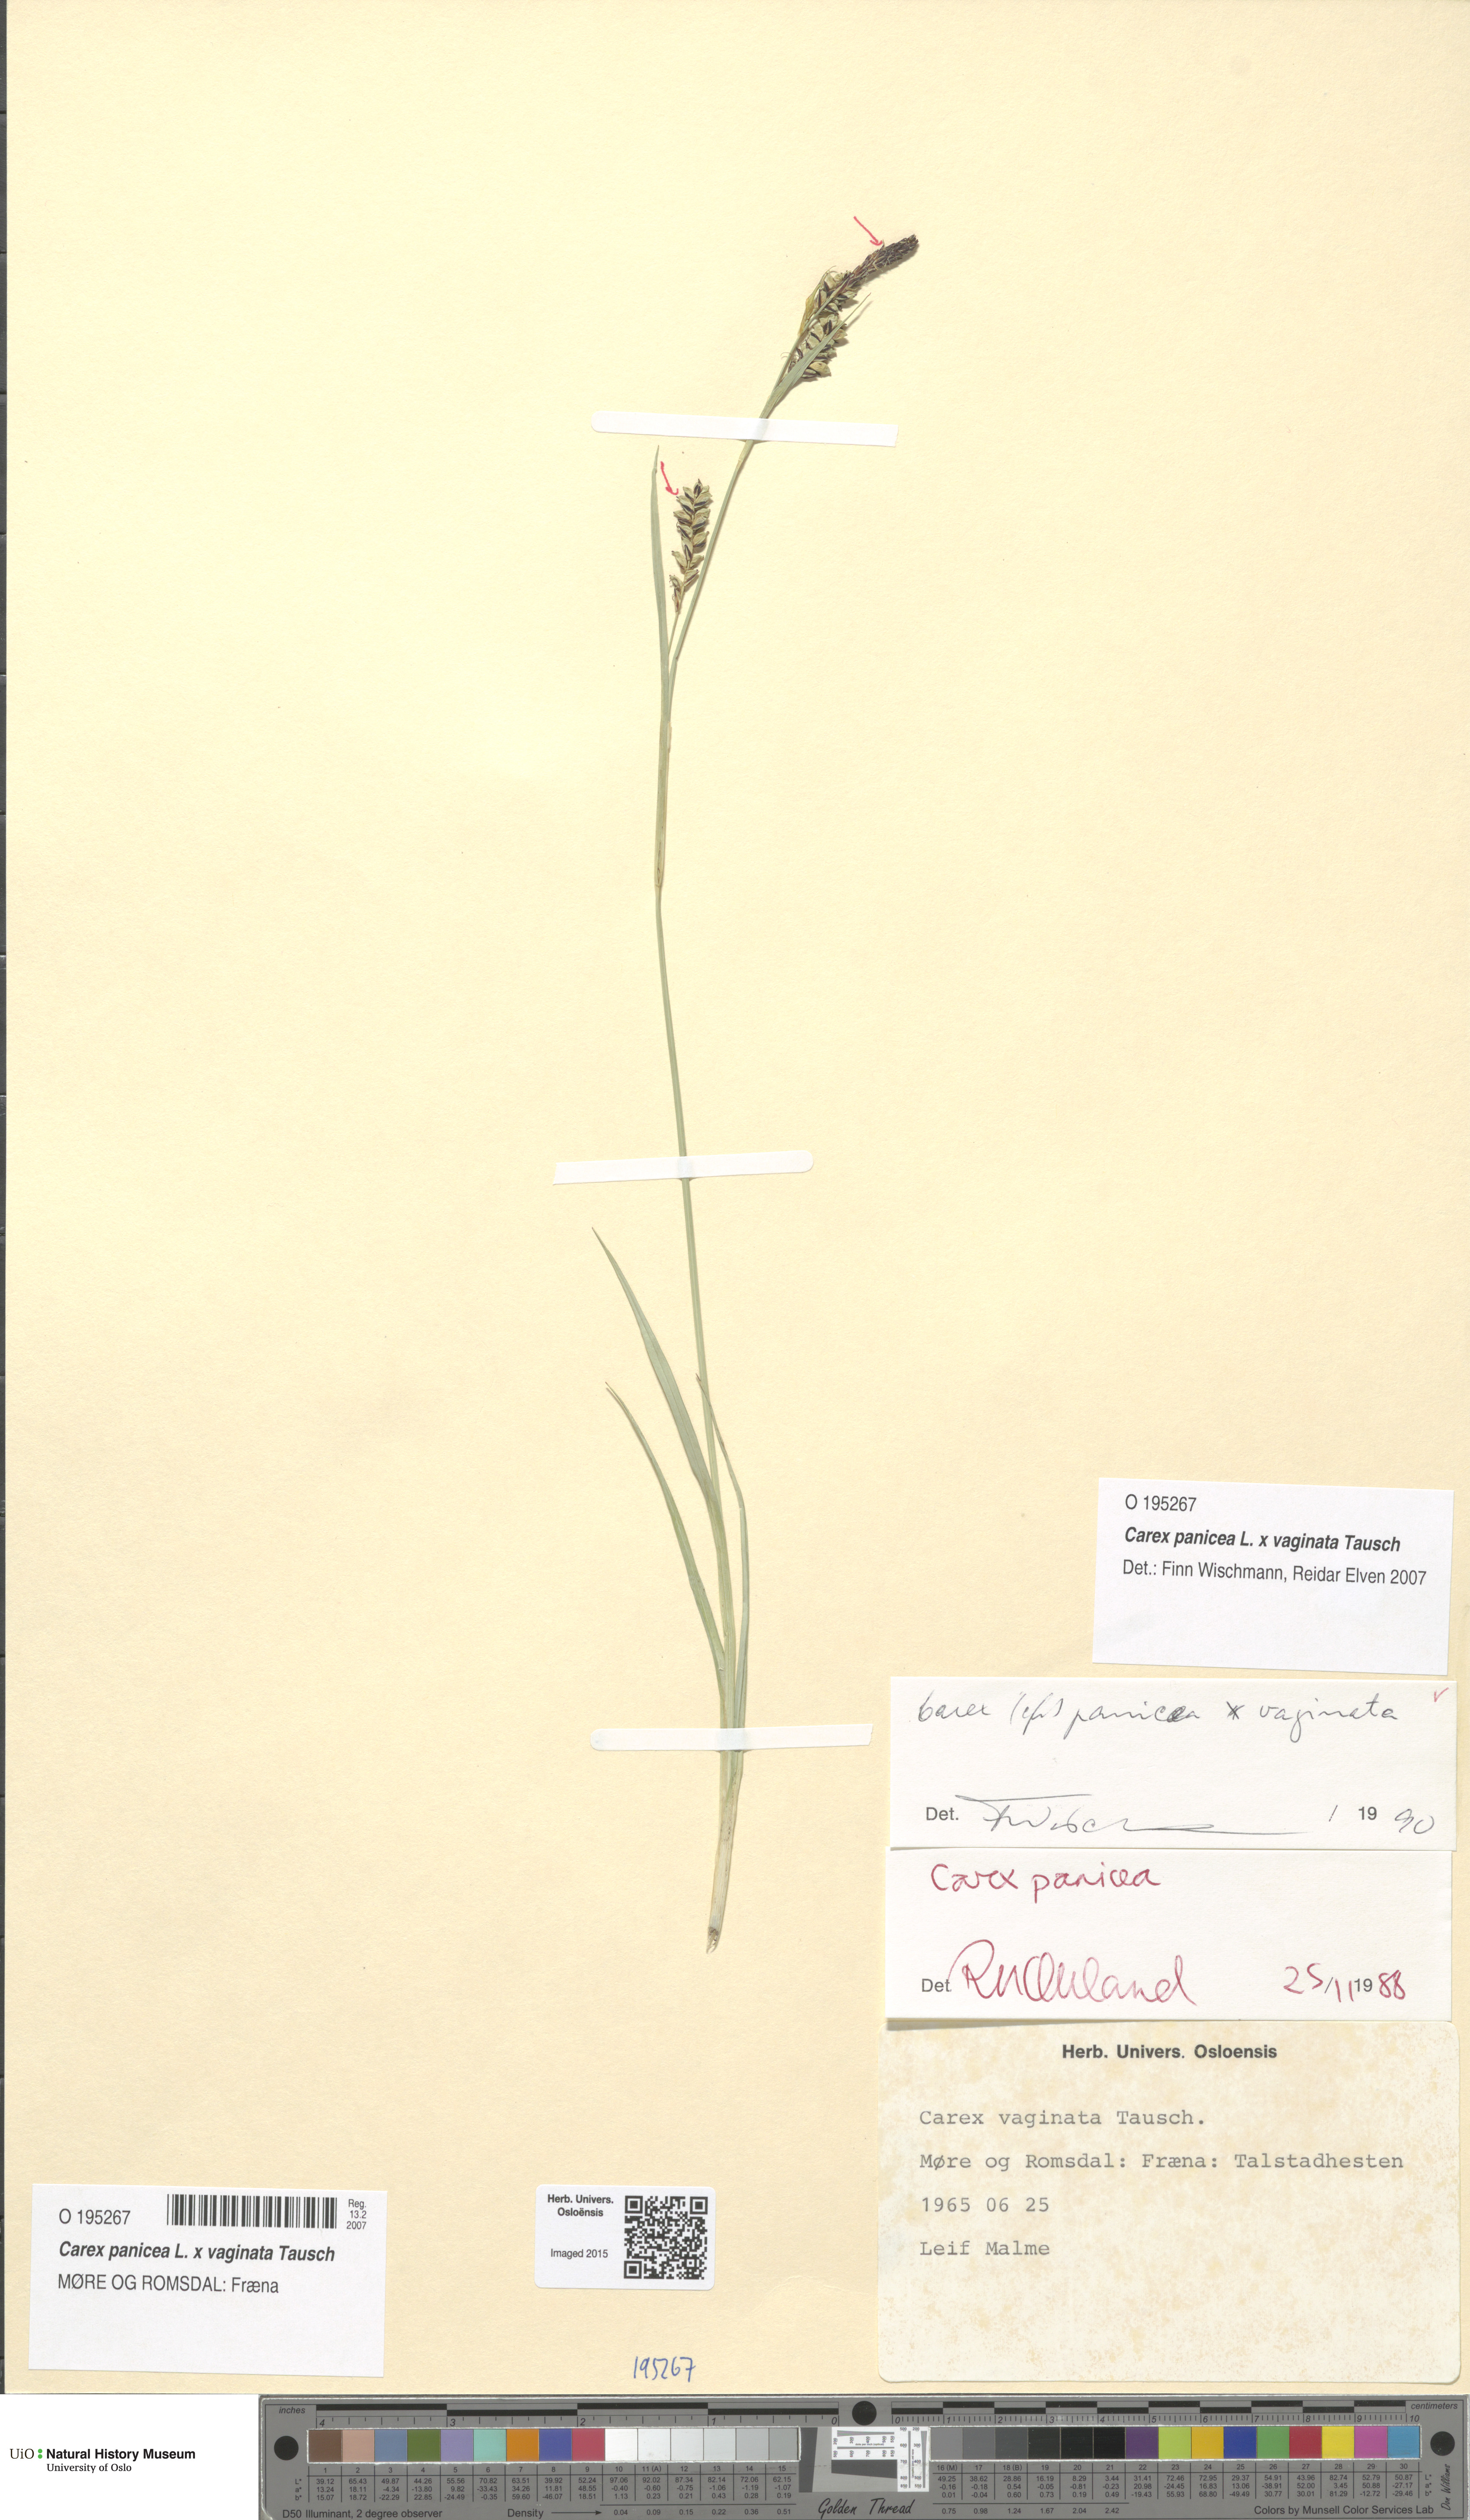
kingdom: Plantae
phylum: Tracheophyta
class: Liliopsida
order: Poales
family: Cyperaceae
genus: Carex
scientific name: Carex
